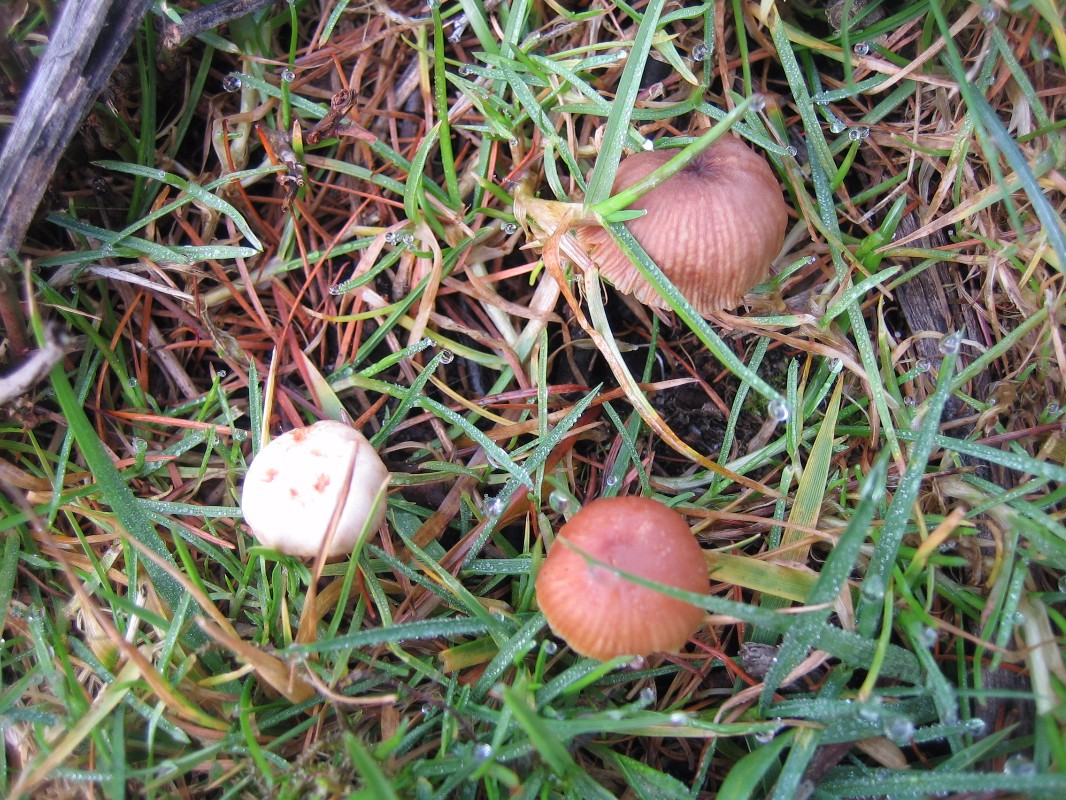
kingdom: Fungi
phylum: Basidiomycota
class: Agaricomycetes
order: Agaricales
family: Tubariaceae
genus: Tubaria
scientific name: Tubaria furfuracea
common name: kliddet fnughat
